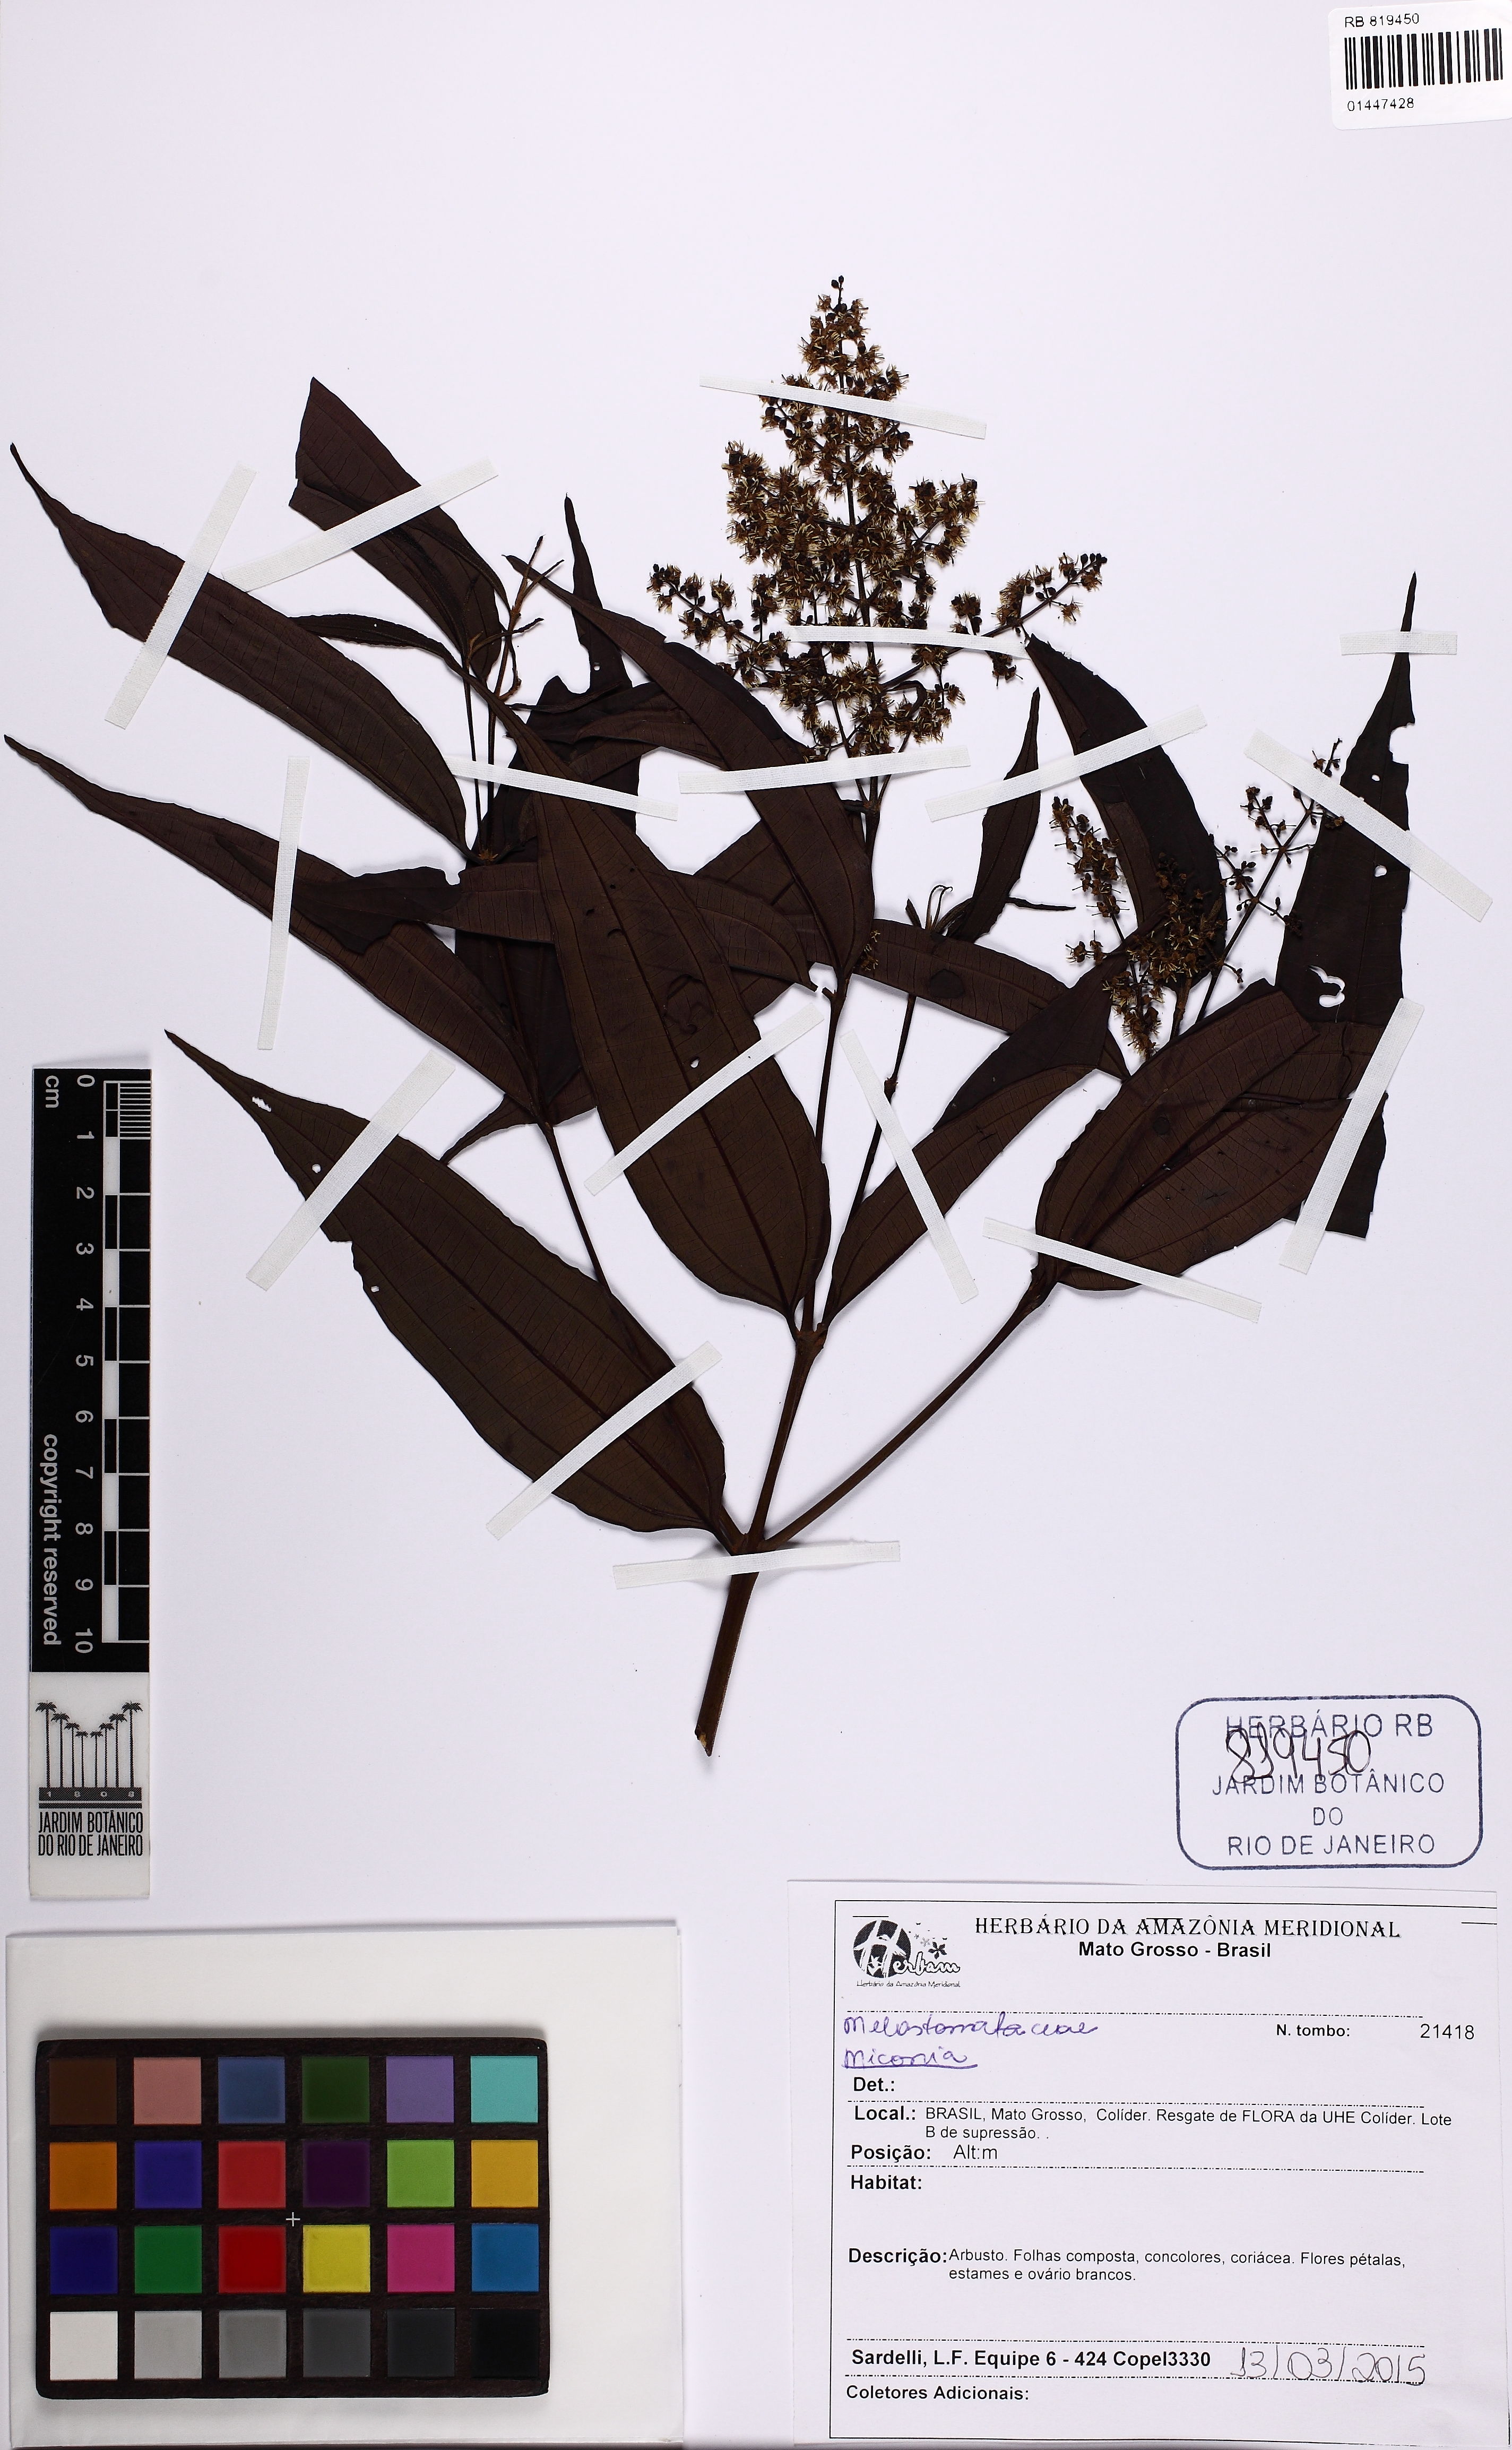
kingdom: Plantae
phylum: Tracheophyta
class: Magnoliopsida
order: Myrtales
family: Melastomataceae
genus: Miconia
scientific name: Miconia
